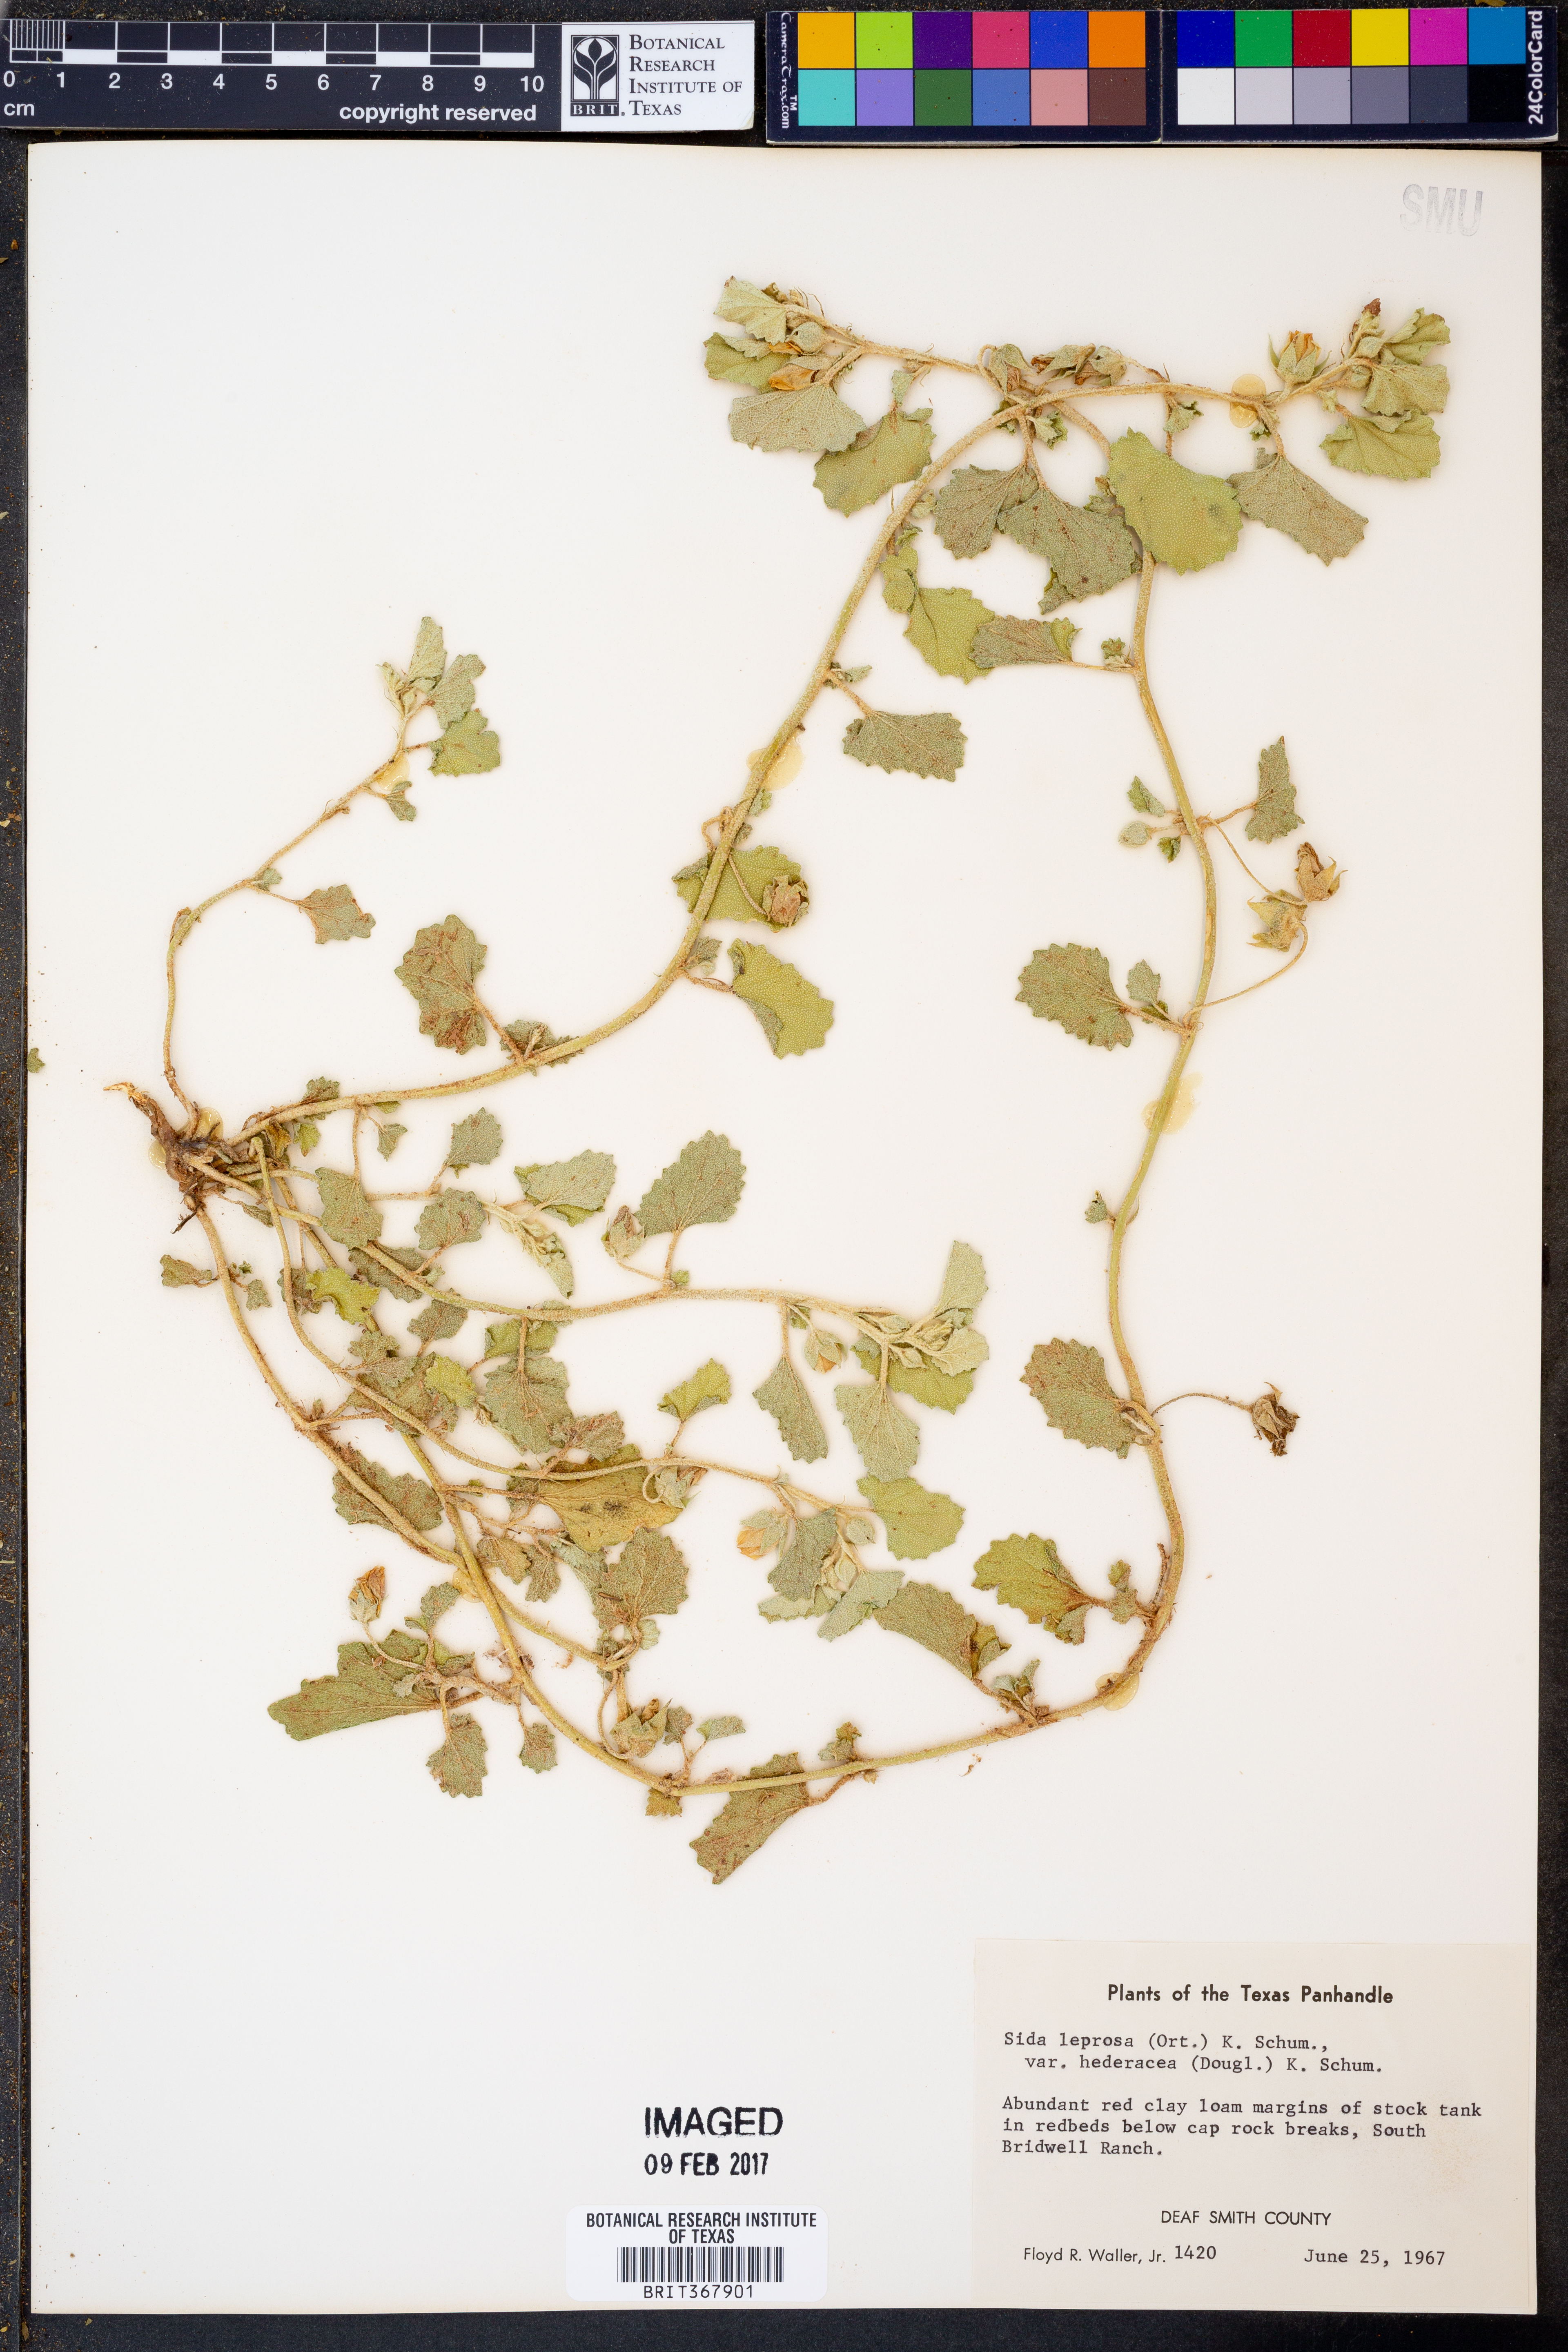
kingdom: Plantae
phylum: Tracheophyta
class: Magnoliopsida
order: Malvales
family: Malvaceae
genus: Malvella
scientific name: Malvella leprosa
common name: Alkali-mallow
